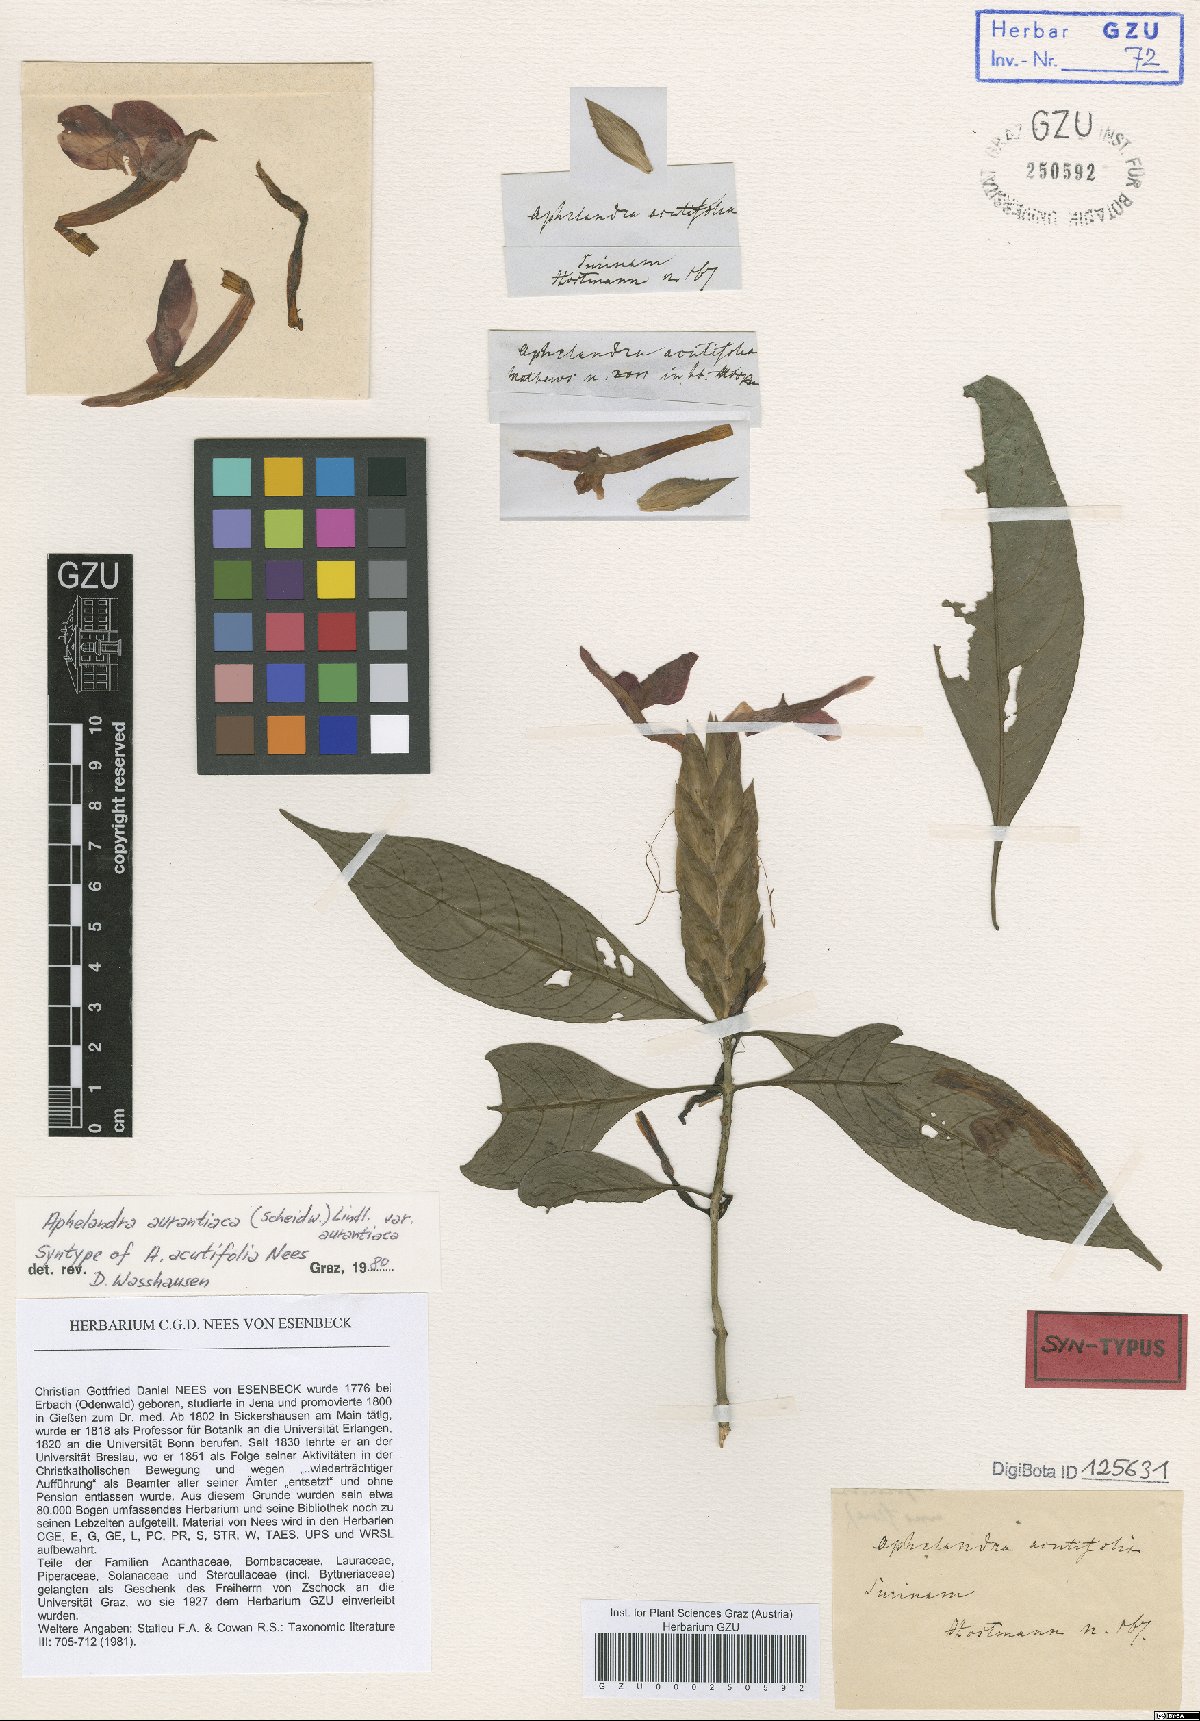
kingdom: Plantae
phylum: Tracheophyta
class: Magnoliopsida
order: Lamiales
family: Acanthaceae
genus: Aphelandra
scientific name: Aphelandra aurantiaca
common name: Fiery spike
